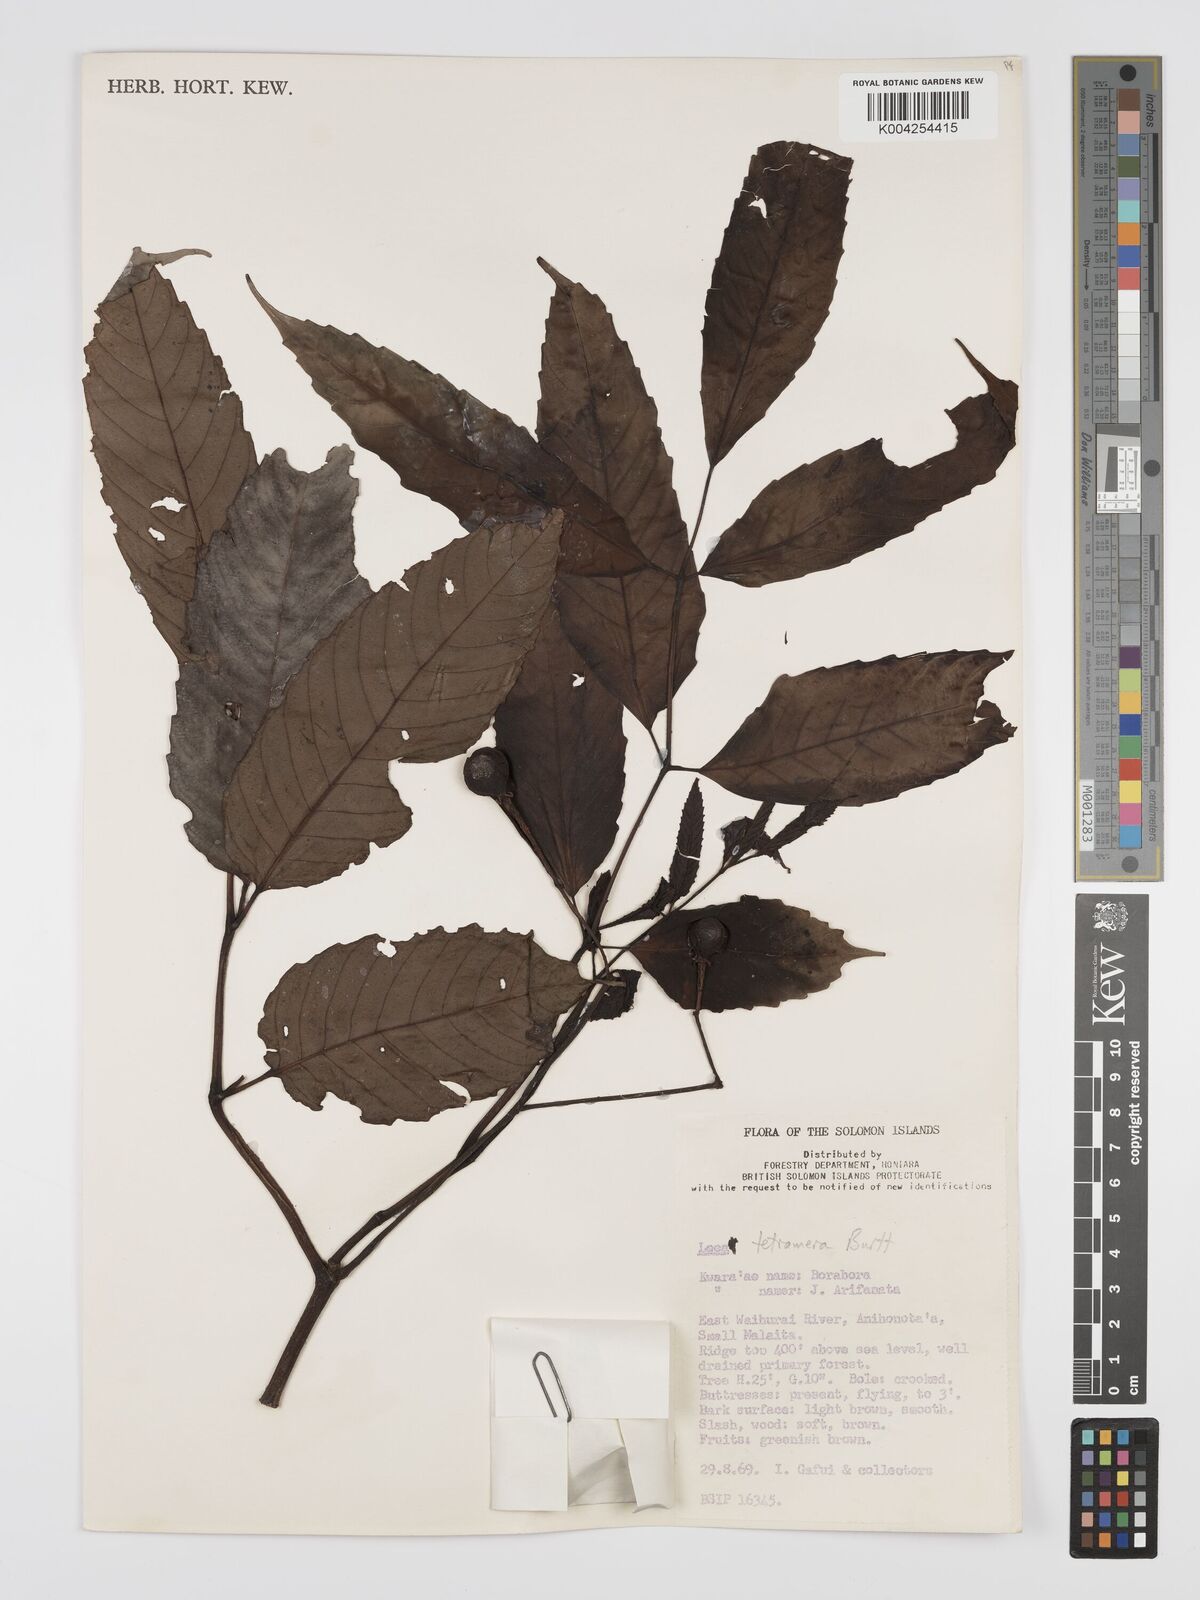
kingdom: Plantae
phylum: Tracheophyta
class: Magnoliopsida
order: Vitales
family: Vitaceae
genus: Leea
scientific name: Leea tetramera
